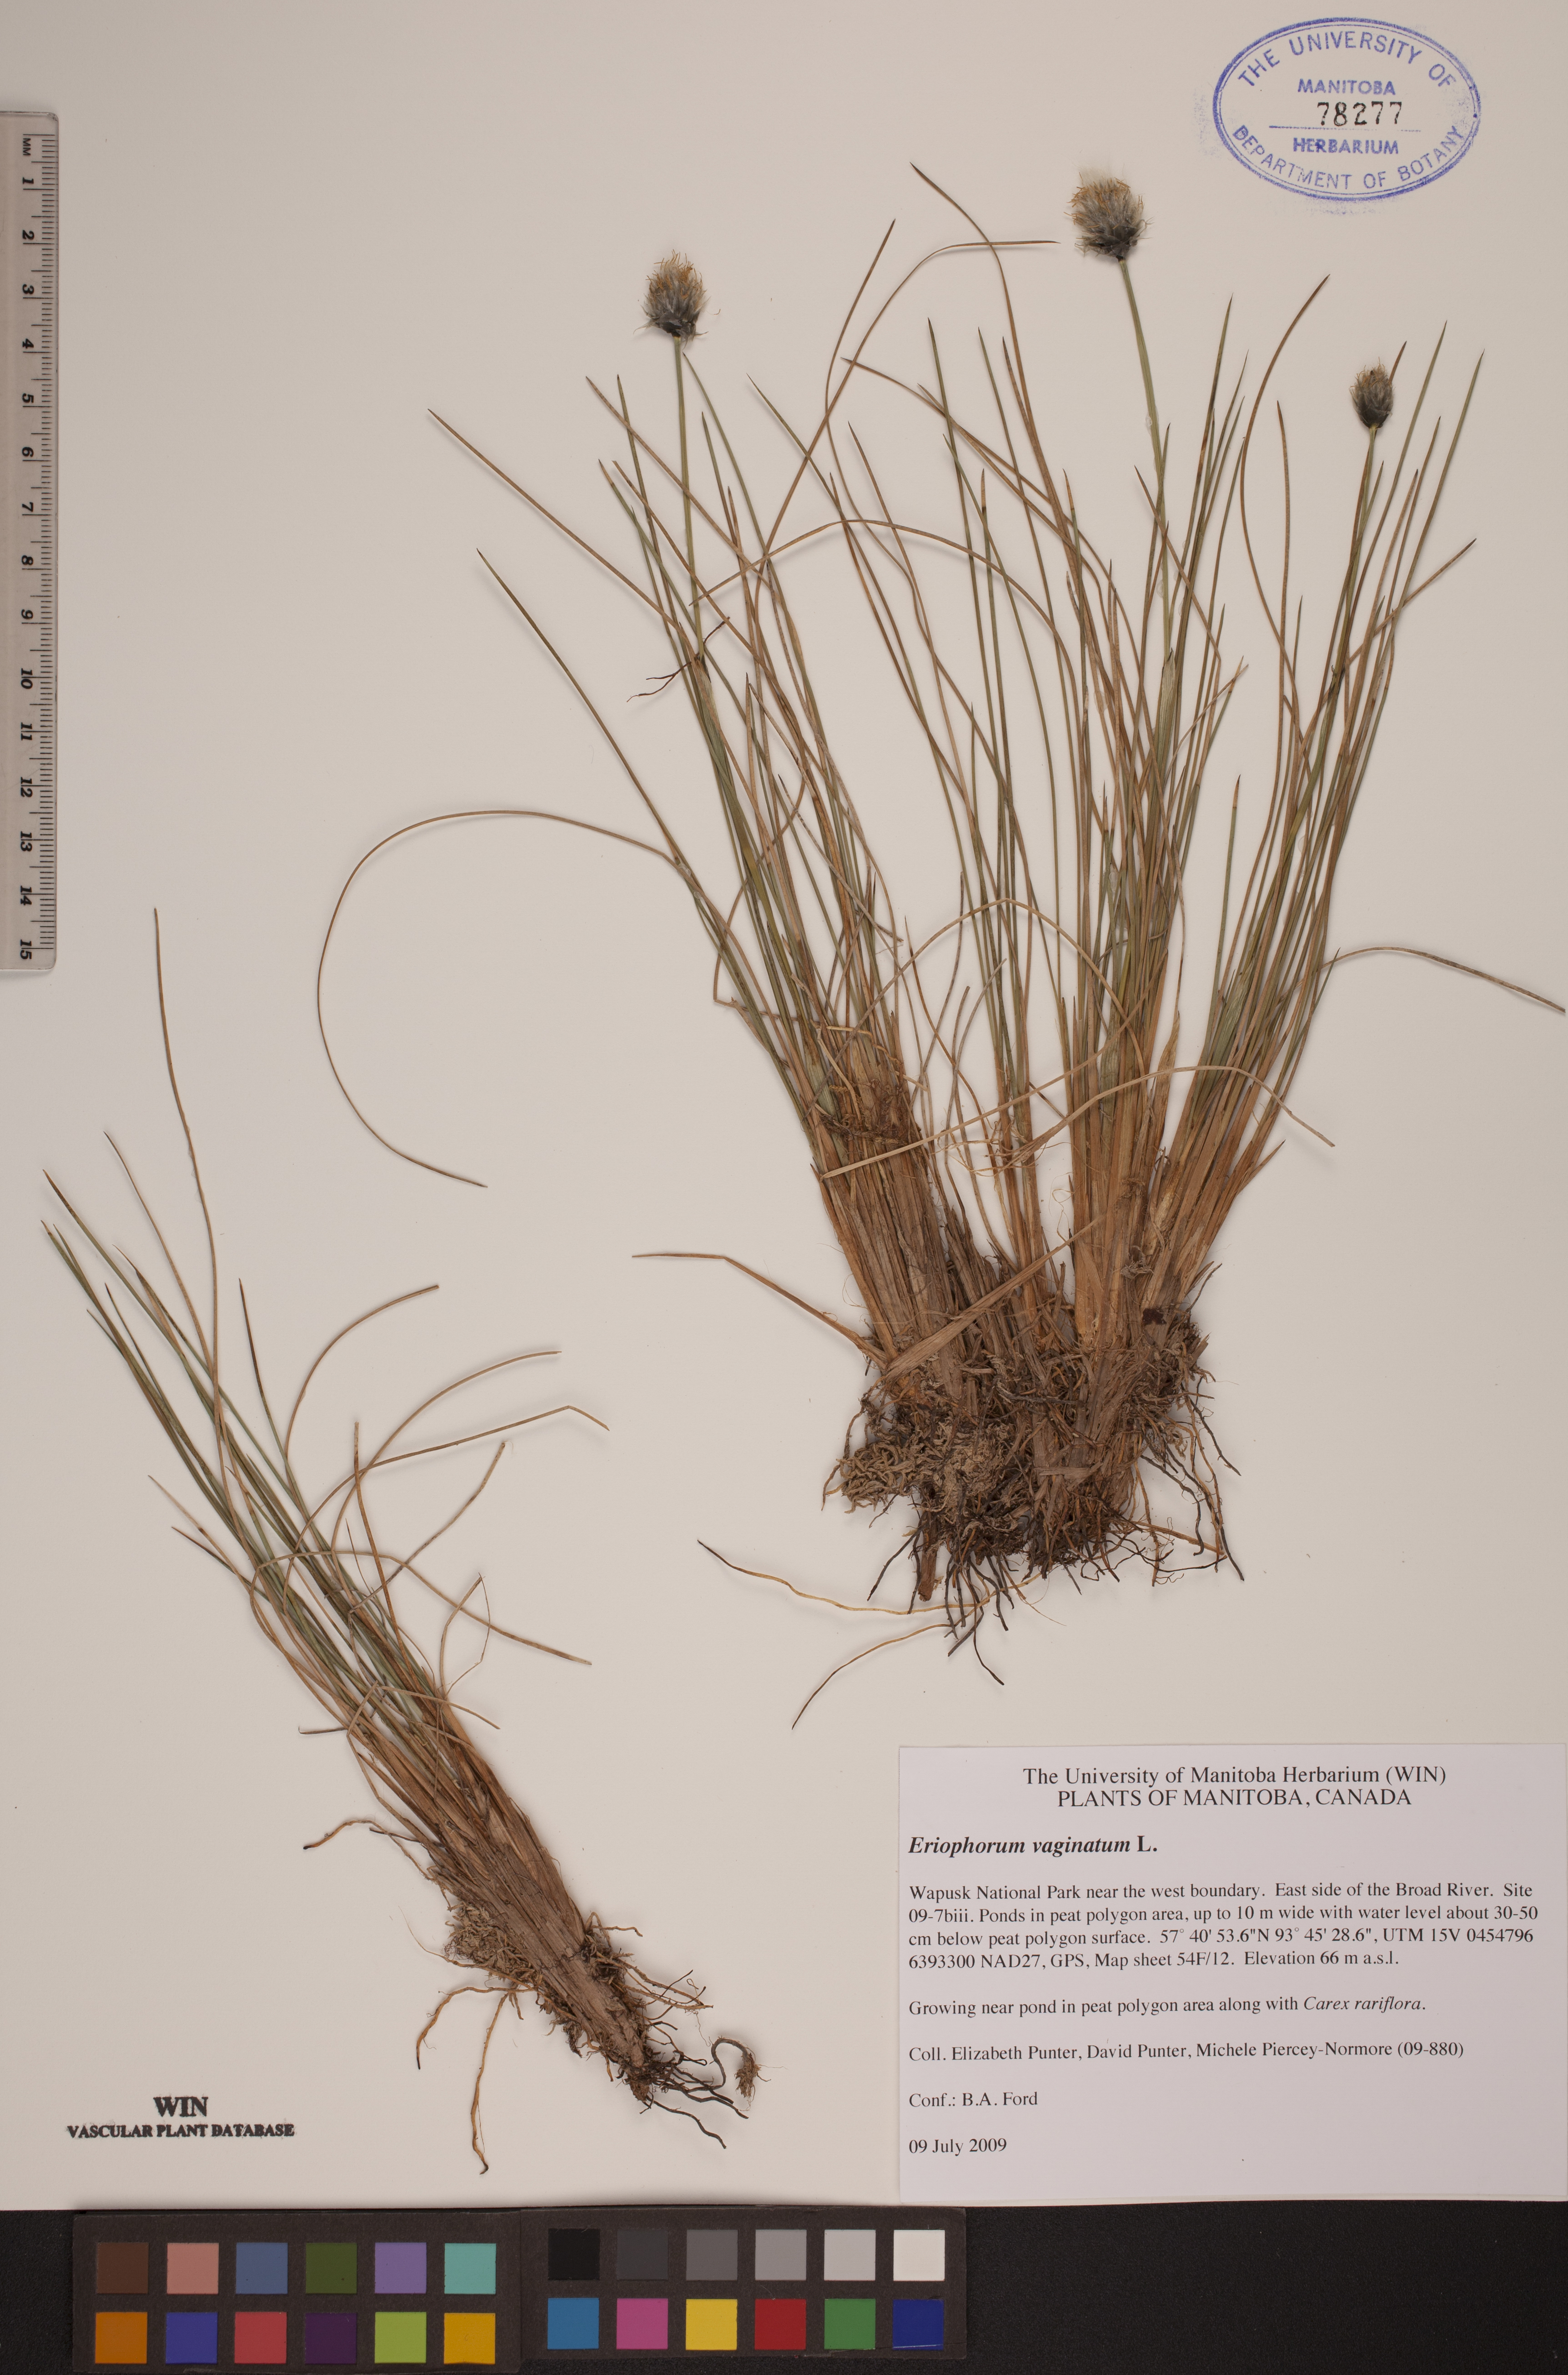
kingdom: Plantae
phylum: Tracheophyta
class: Liliopsida
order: Poales
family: Cyperaceae
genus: Eriophorum
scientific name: Eriophorum vaginatum
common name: Hare's-tail cottongrass
